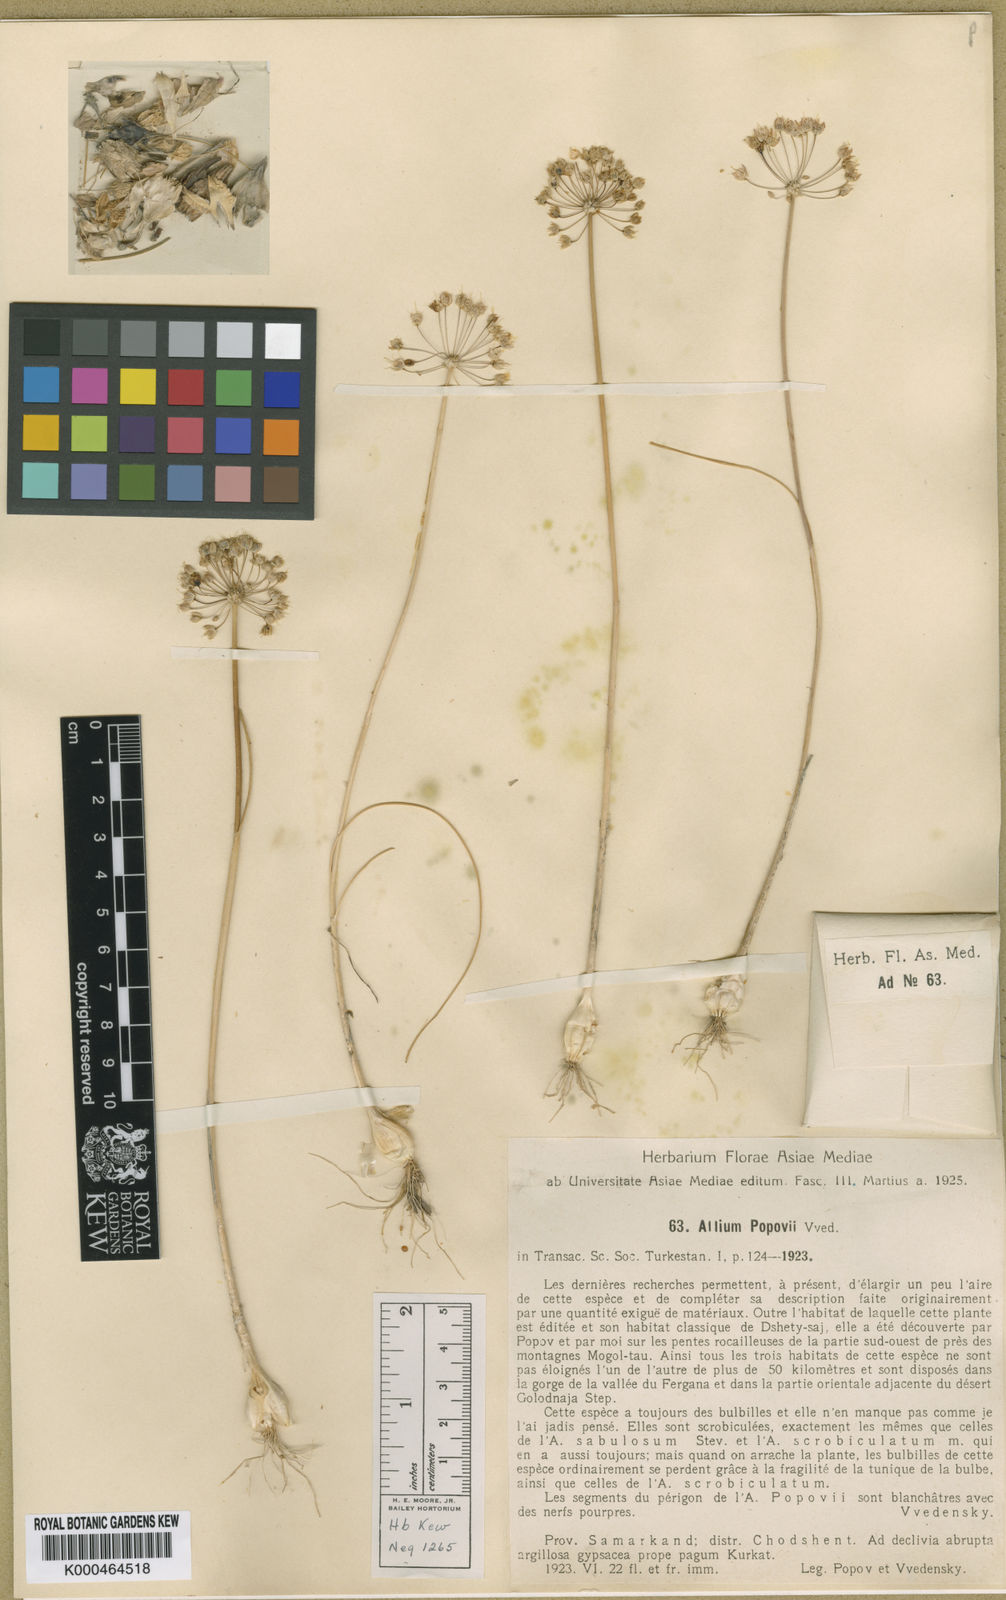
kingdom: Plantae
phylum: Tracheophyta
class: Liliopsida
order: Asparagales
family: Amaryllidaceae
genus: Allium
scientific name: Allium popovii
